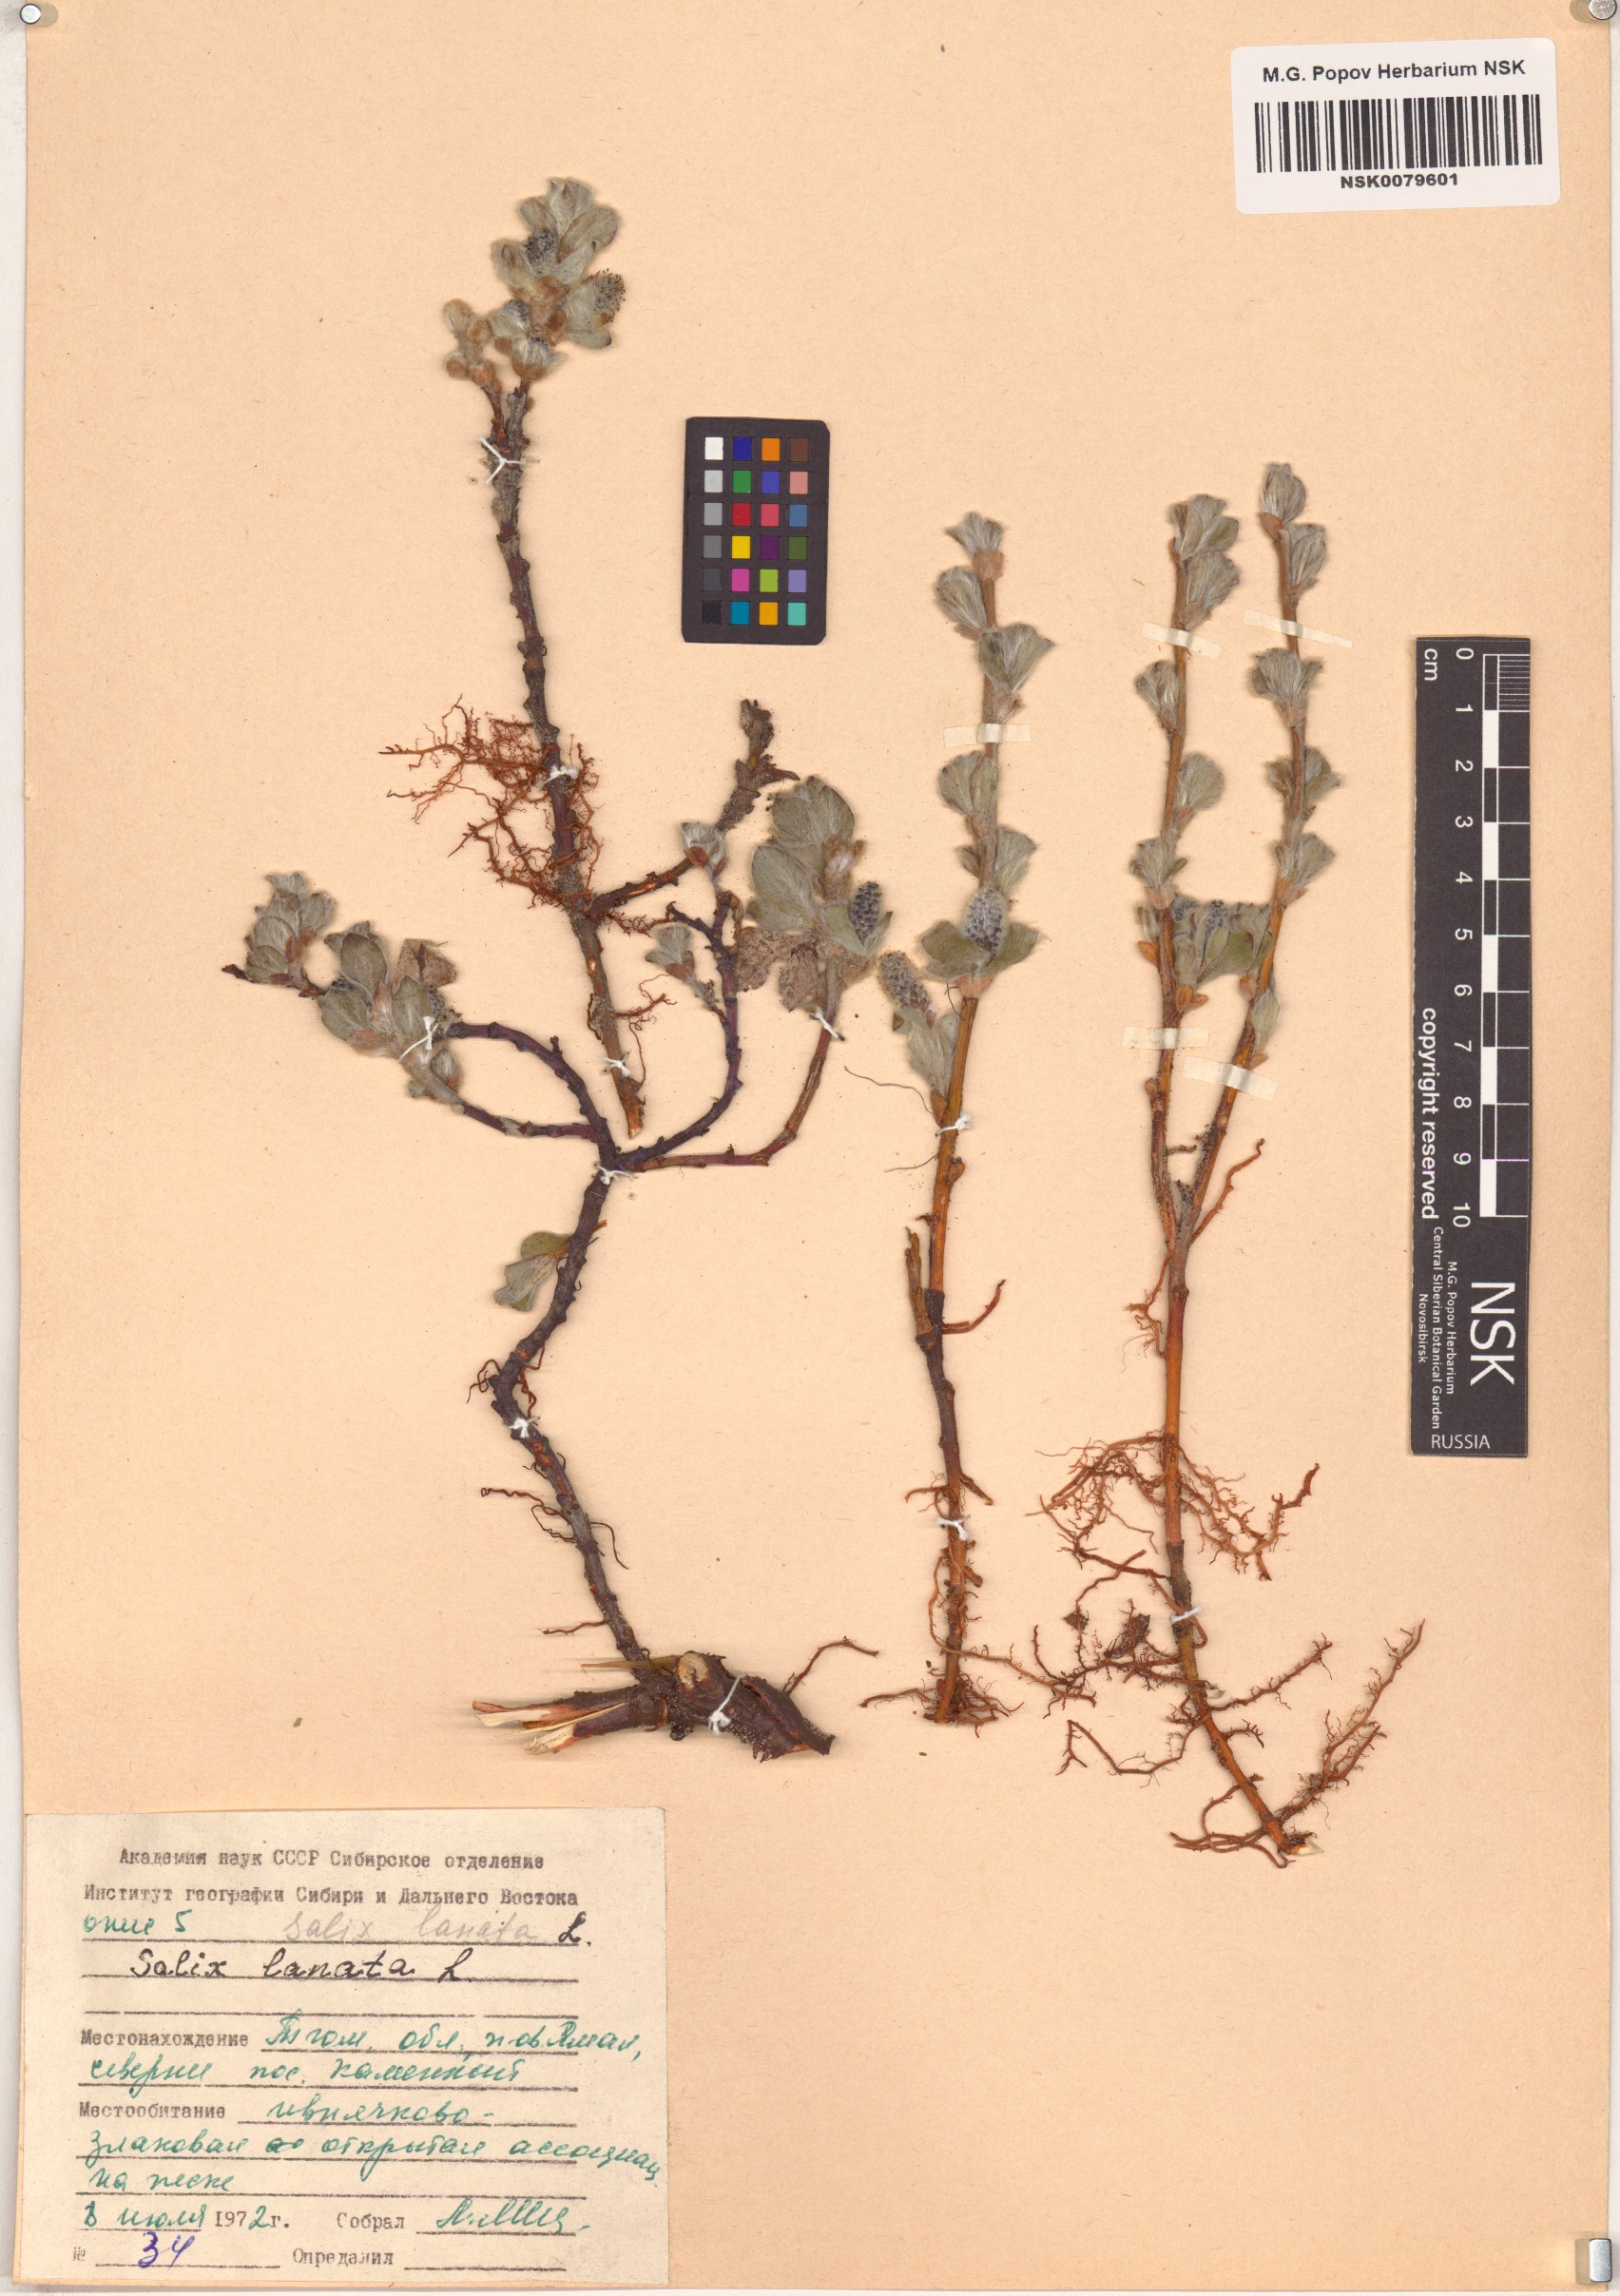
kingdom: Plantae
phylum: Tracheophyta
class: Magnoliopsida
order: Malpighiales
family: Salicaceae
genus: Salix
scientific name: Salix lanata
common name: Woolly willow
